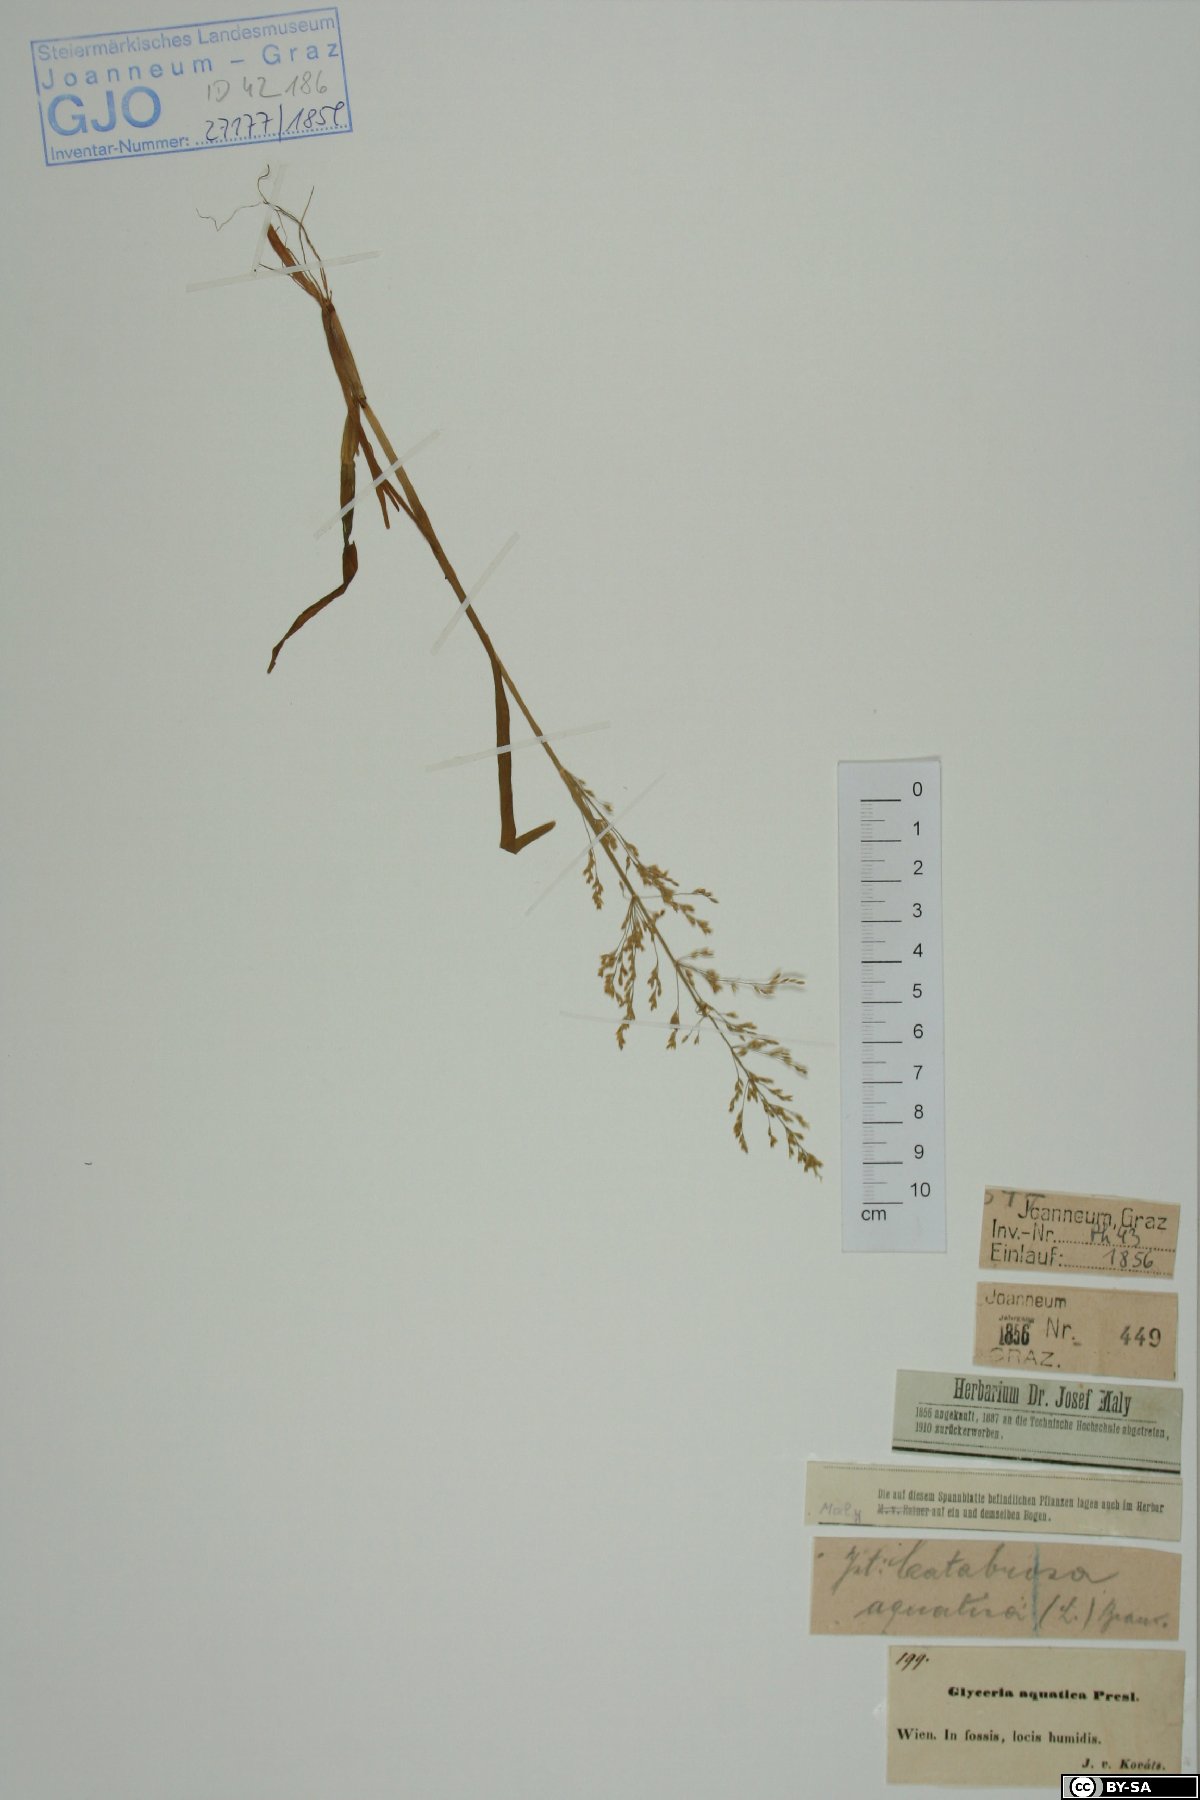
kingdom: Plantae
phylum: Tracheophyta
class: Liliopsida
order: Poales
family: Poaceae
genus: Catabrosa
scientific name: Catabrosa aquatica
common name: Whorl-grass
